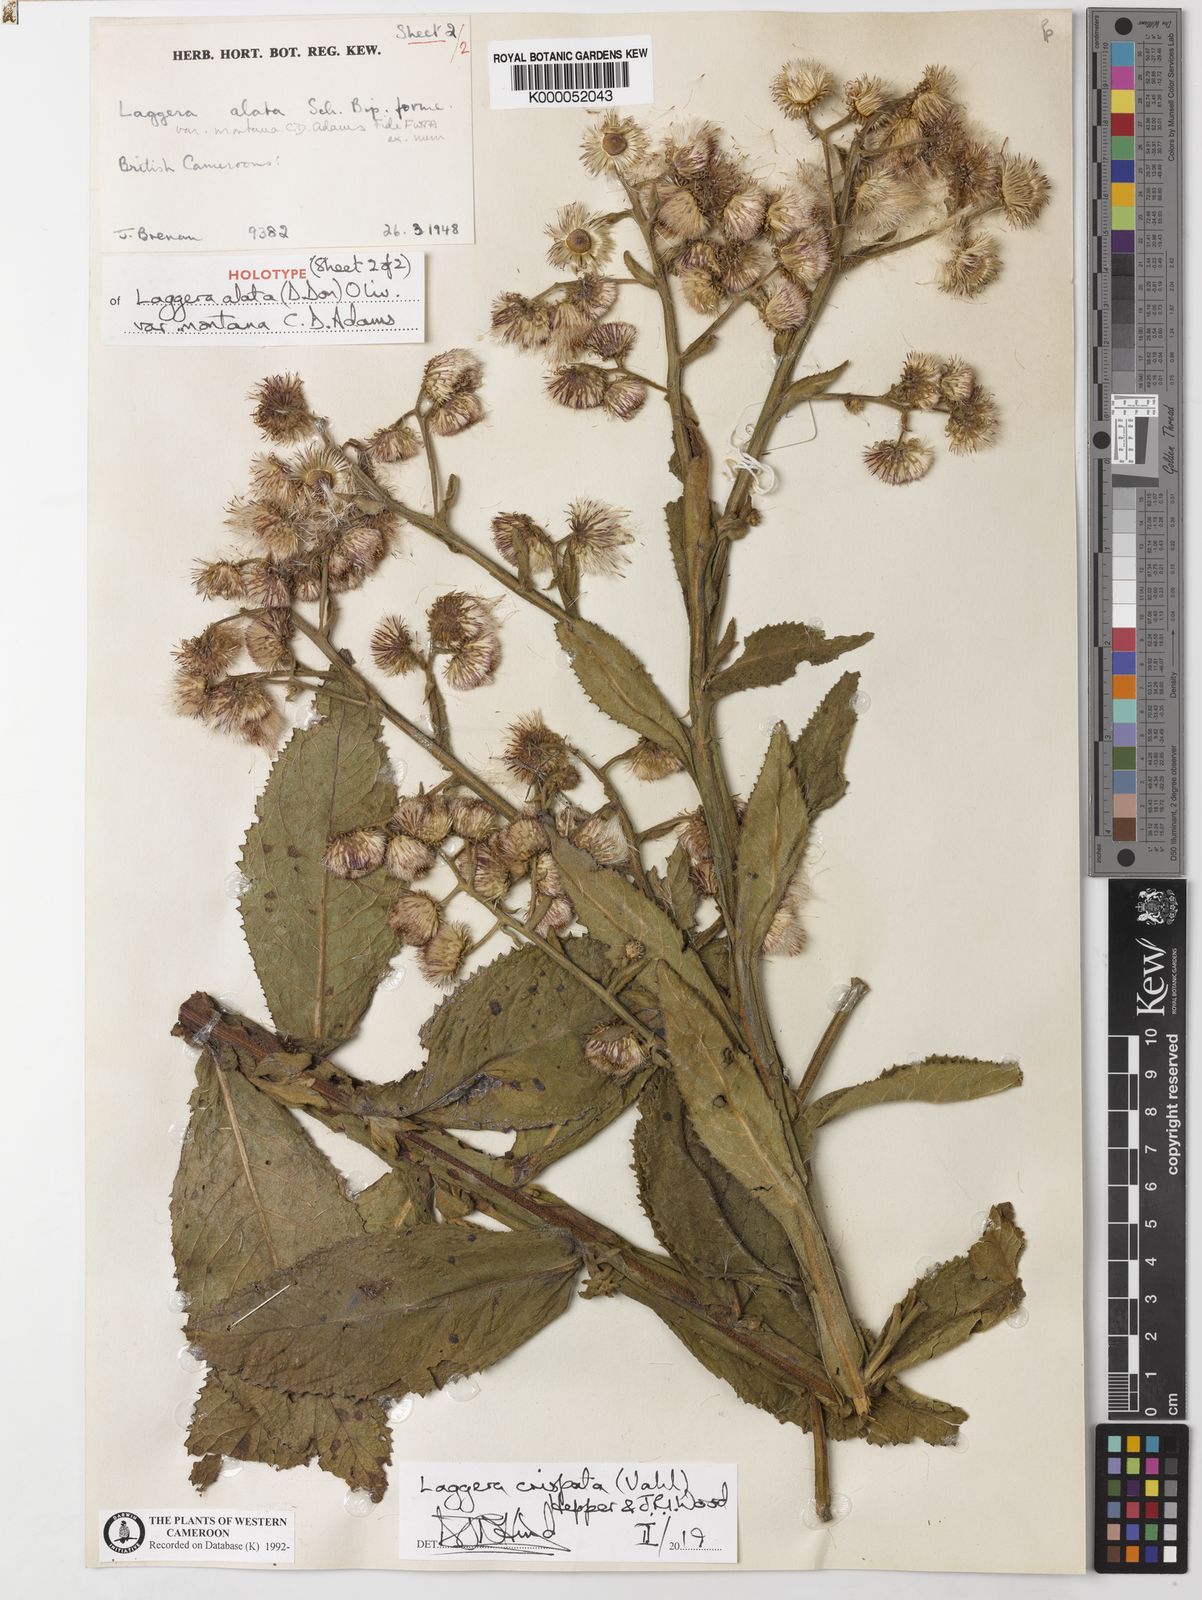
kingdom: Plantae
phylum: Tracheophyta
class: Magnoliopsida
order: Asterales
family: Asteraceae
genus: Laggera
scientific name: Laggera crispata
